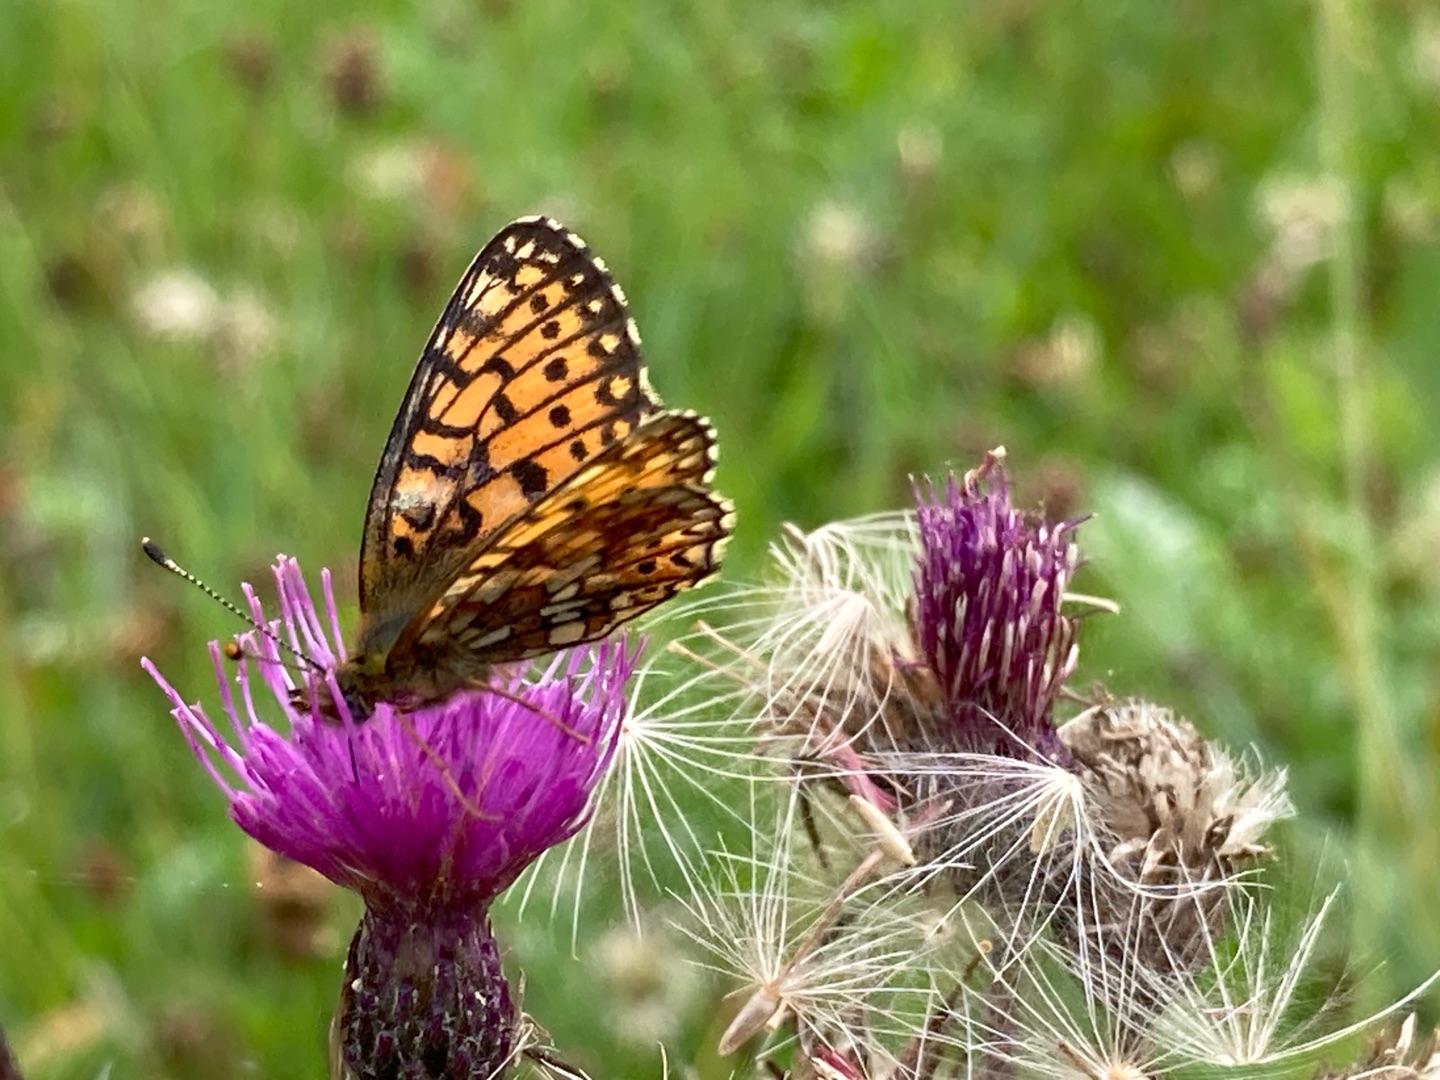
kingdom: Animalia
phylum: Arthropoda
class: Insecta
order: Lepidoptera
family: Nymphalidae
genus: Boloria
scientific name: Boloria selene
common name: Brunlig perlemorsommerfugl
